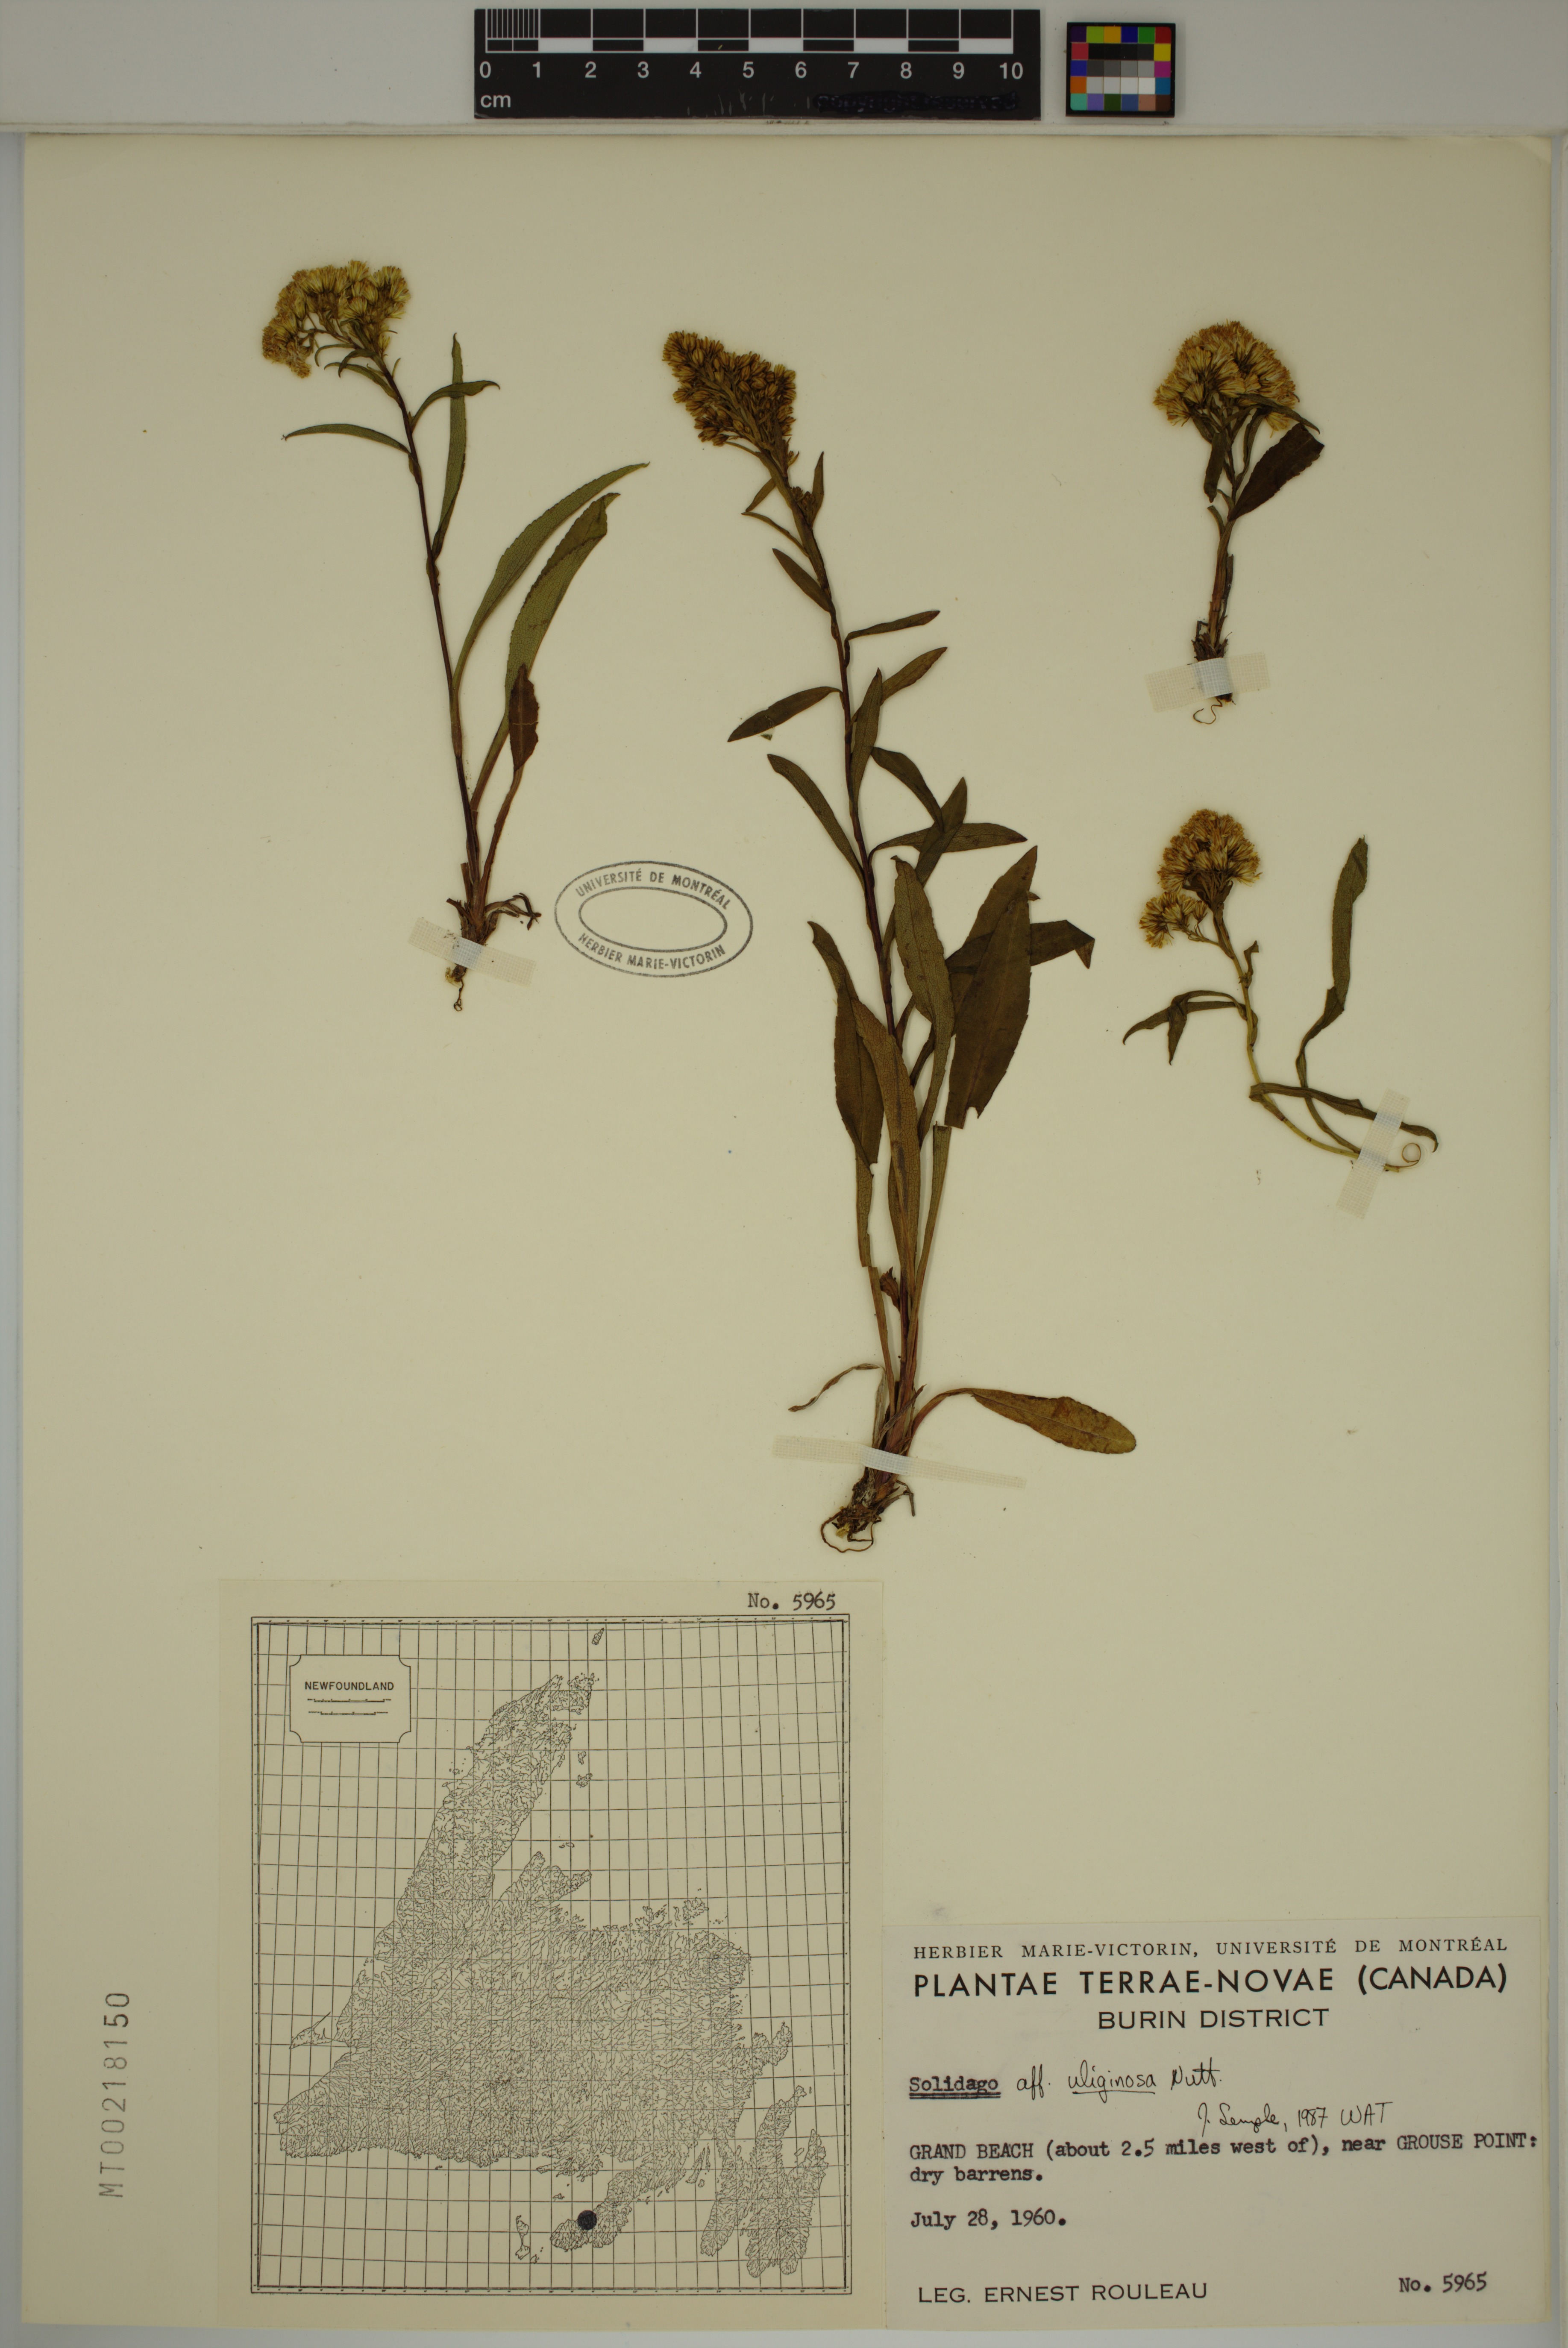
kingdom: Plantae
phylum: Tracheophyta
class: Magnoliopsida
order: Asterales
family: Asteraceae
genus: Solidago
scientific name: Solidago uliginosa
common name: Bog goldenrod
